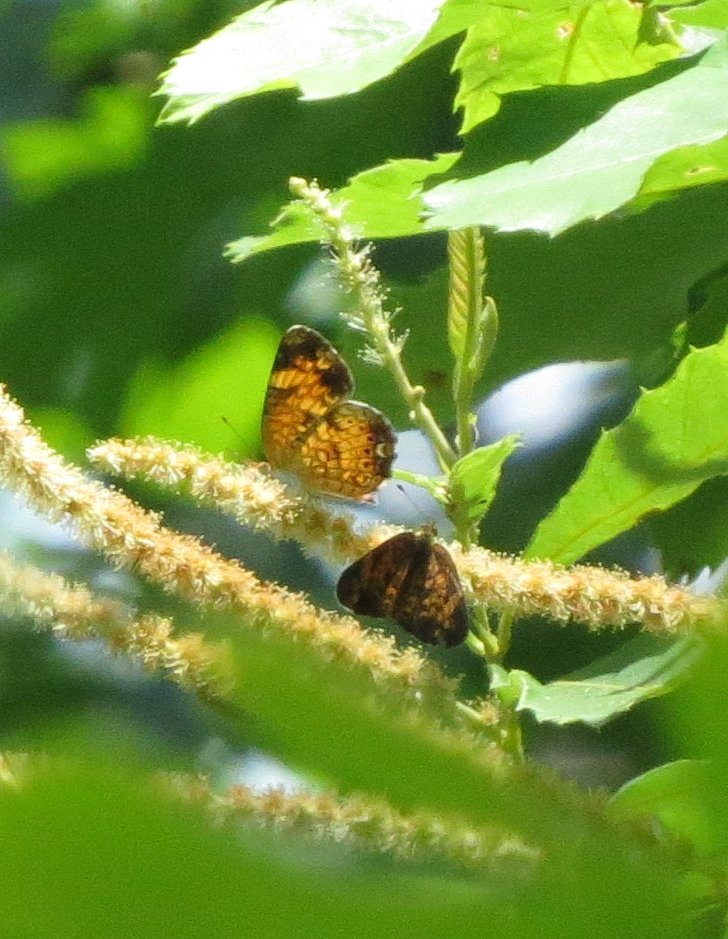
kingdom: Animalia
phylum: Arthropoda
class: Insecta
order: Lepidoptera
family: Nymphalidae
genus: Phyciodes
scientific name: Phyciodes tharos
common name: Pearl Crescent
